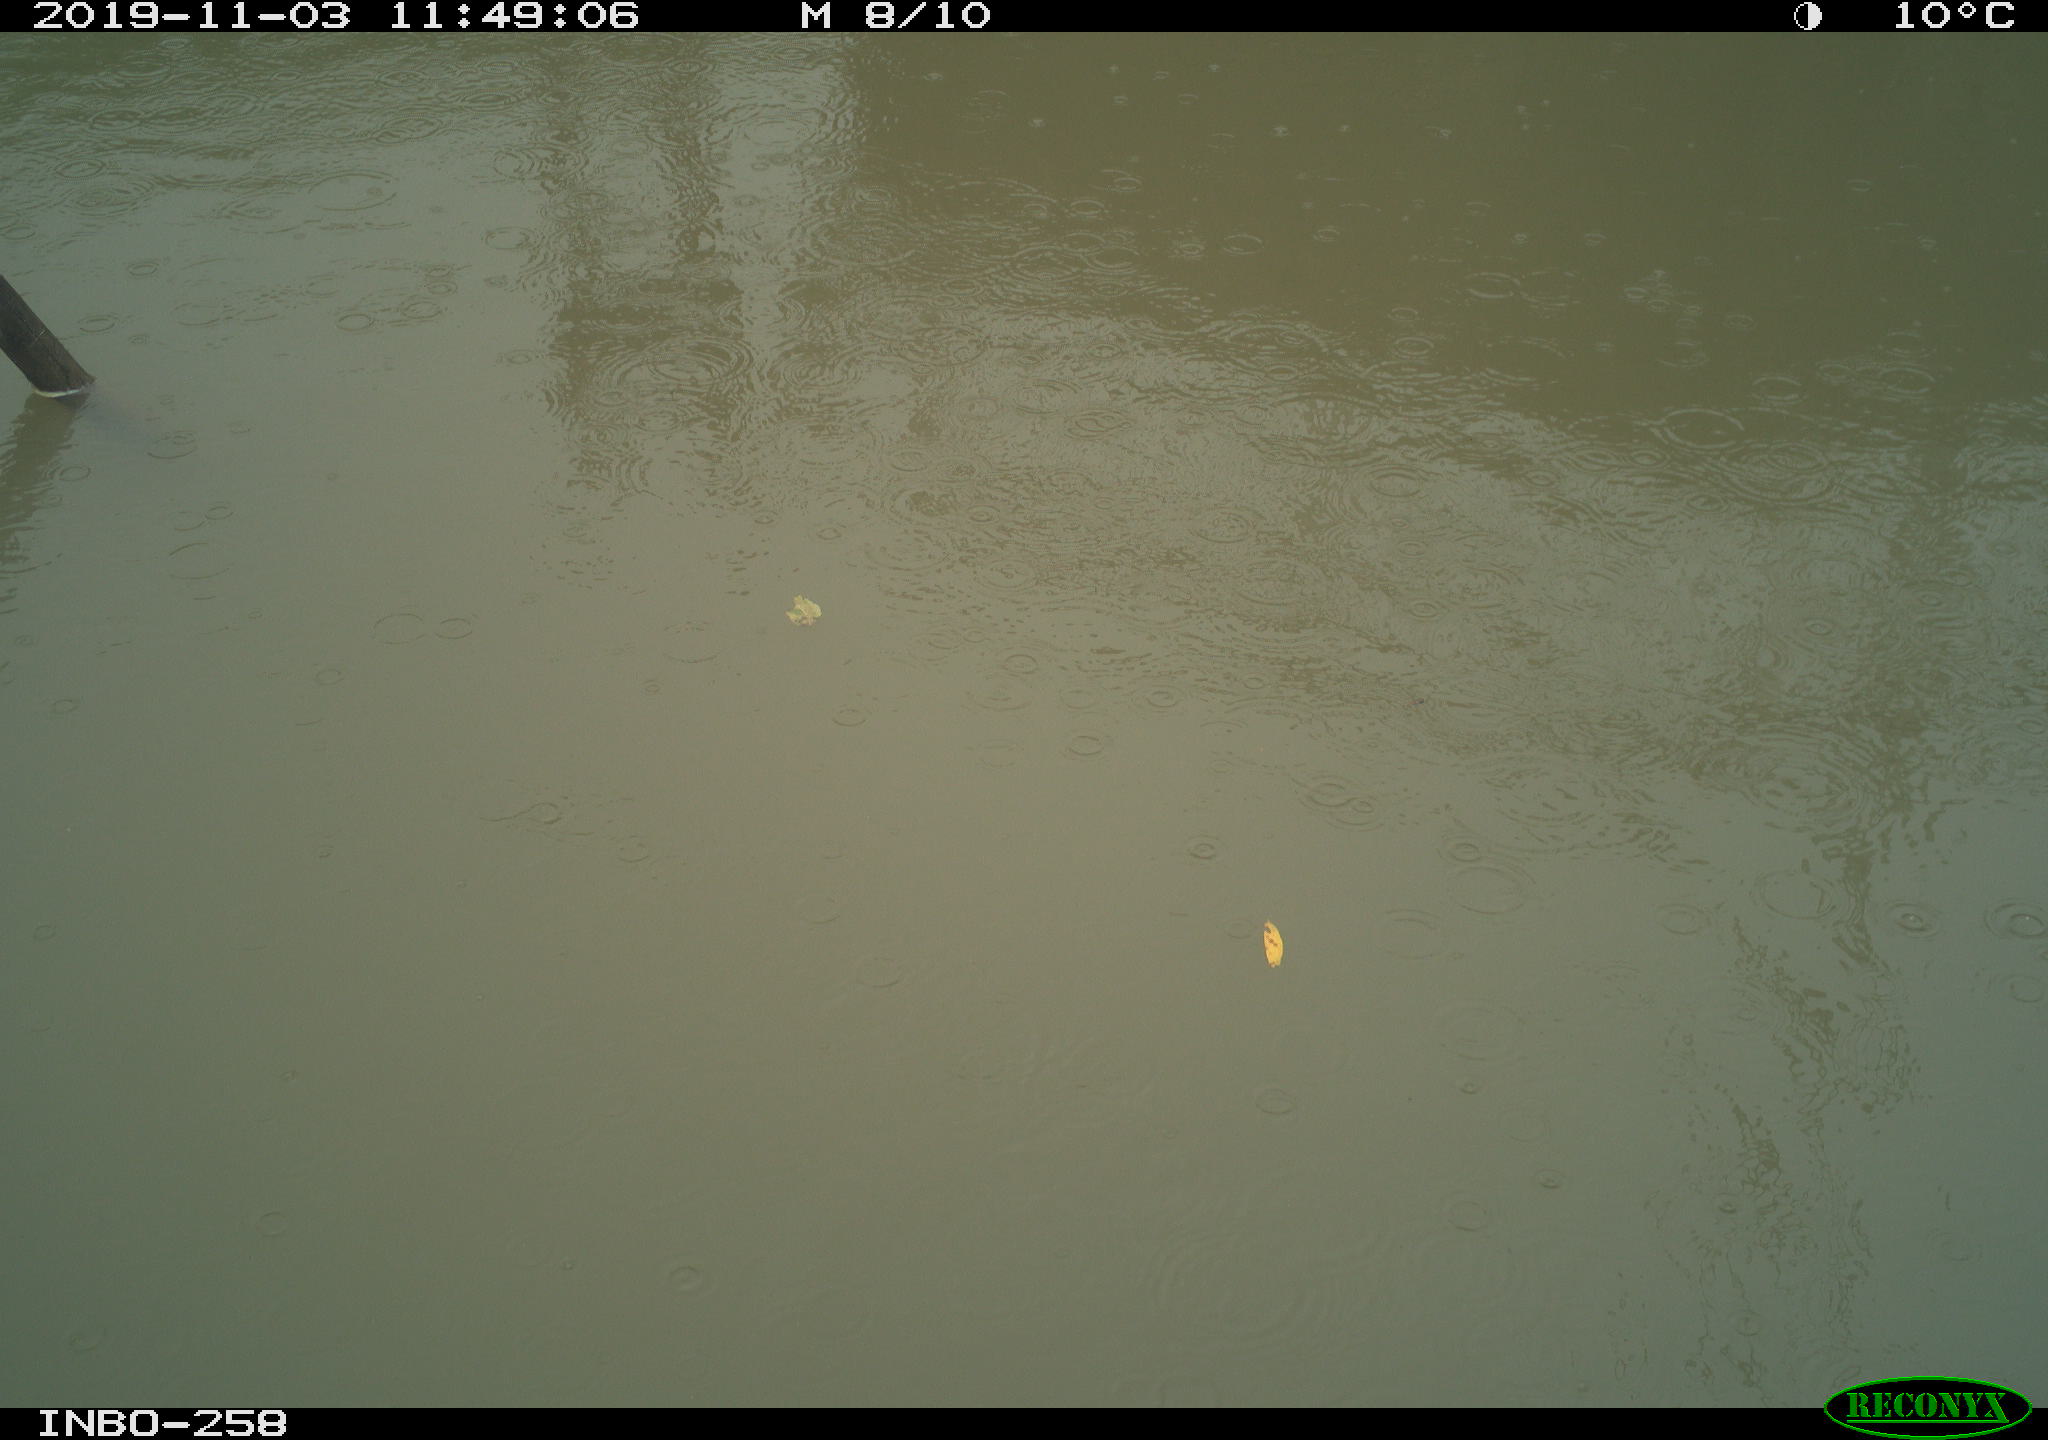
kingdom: Animalia
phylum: Chordata
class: Aves
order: Gruiformes
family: Rallidae
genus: Gallinula
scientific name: Gallinula chloropus
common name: Common moorhen
